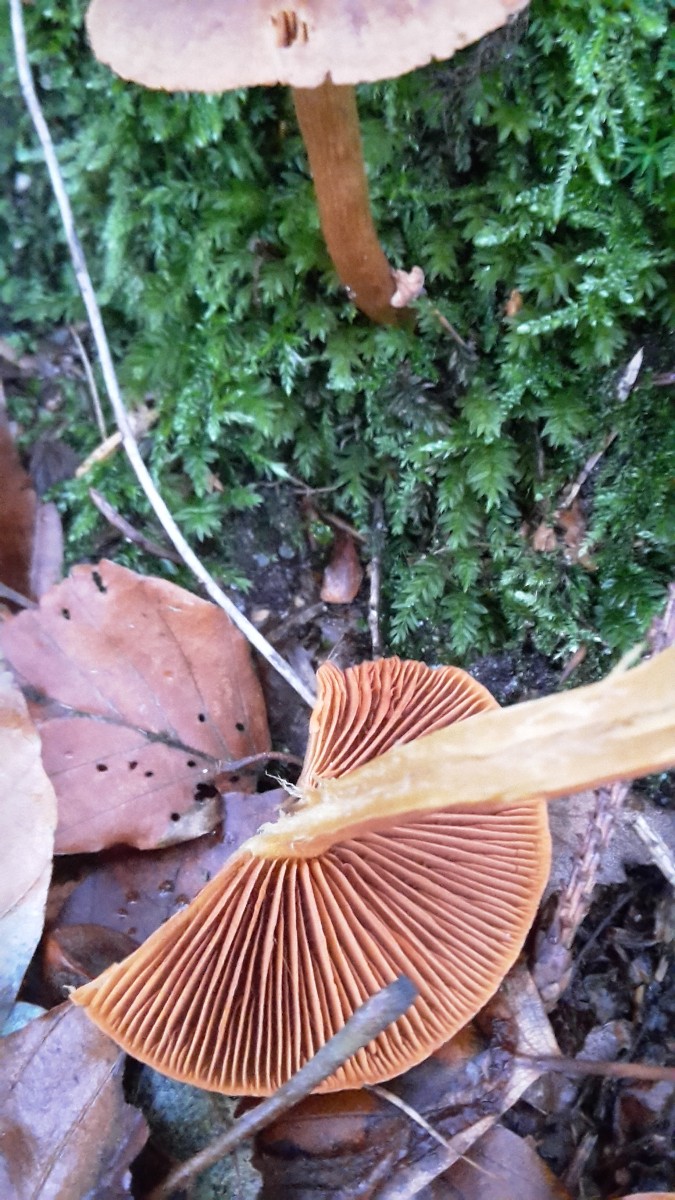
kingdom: Fungi
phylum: Basidiomycota
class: Agaricomycetes
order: Agaricales
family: Cortinariaceae
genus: Cortinarius
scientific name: Cortinarius cinnamomeus
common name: kanel-slørhat
